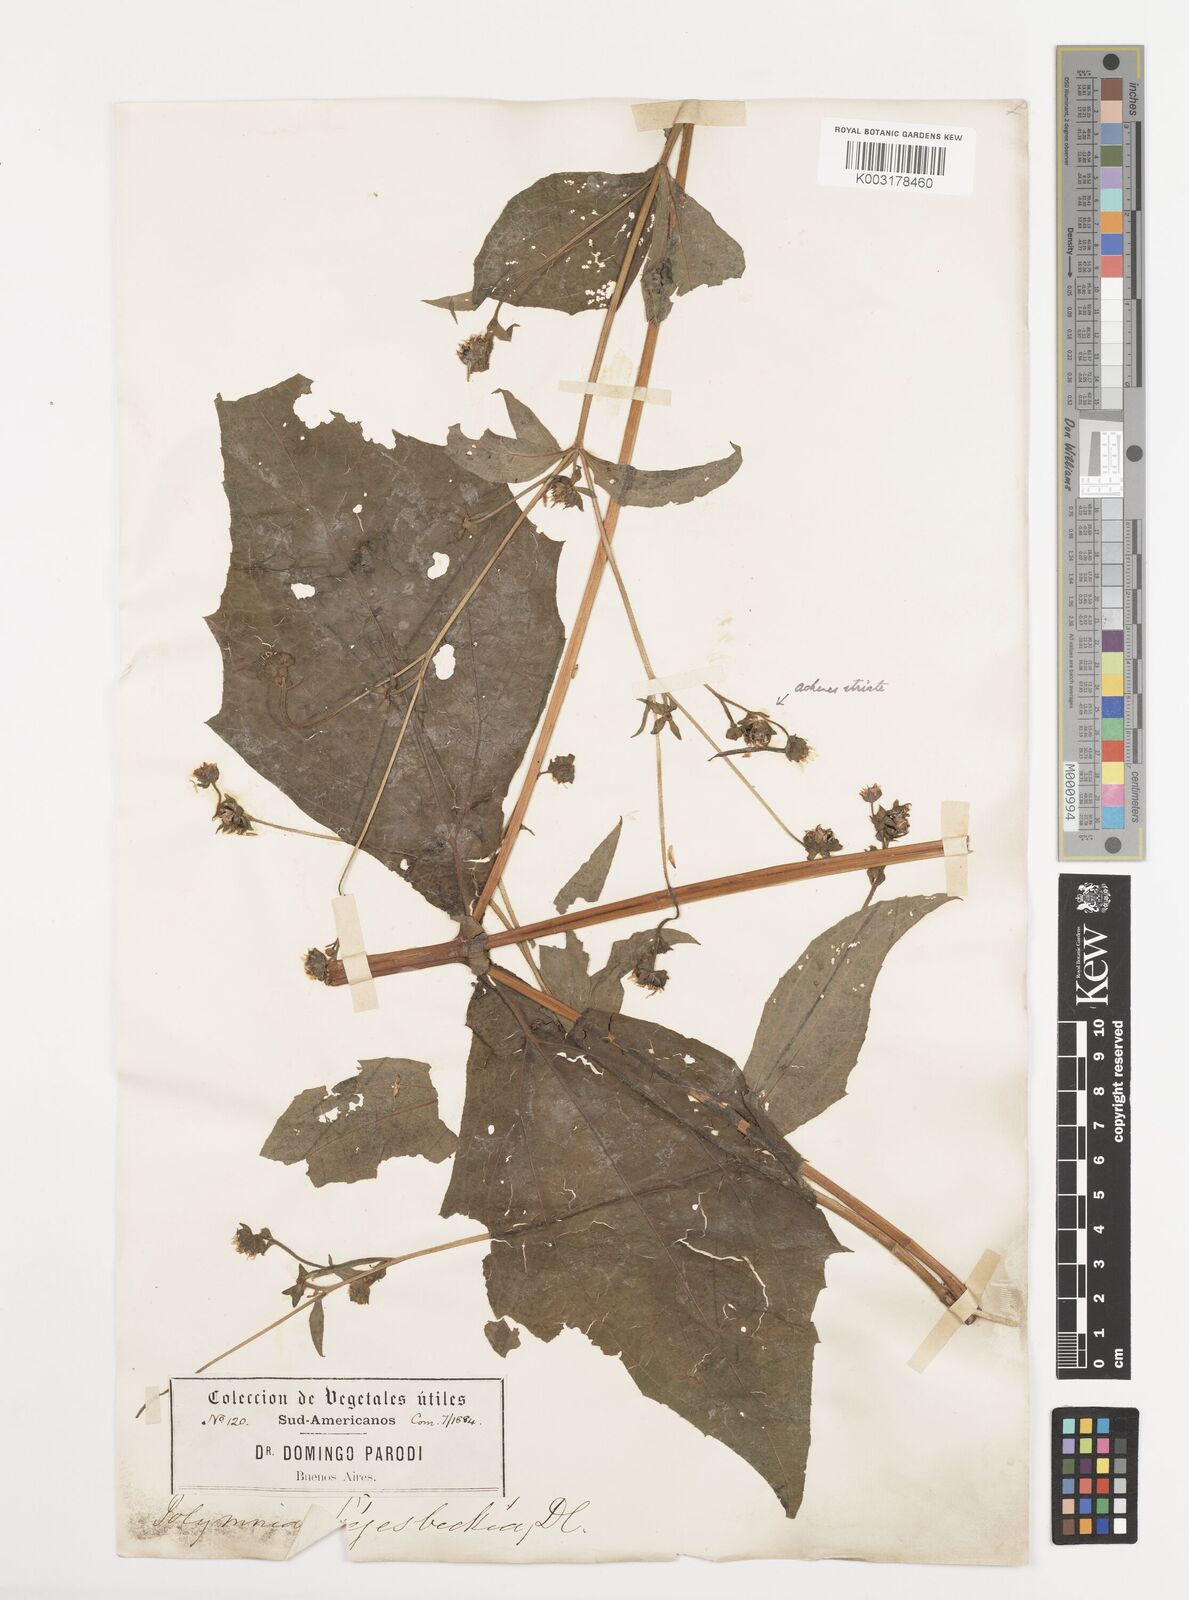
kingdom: Plantae
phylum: Tracheophyta
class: Magnoliopsida
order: Asterales
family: Asteraceae
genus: Smallanthus
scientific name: Smallanthus siegesbeckius
